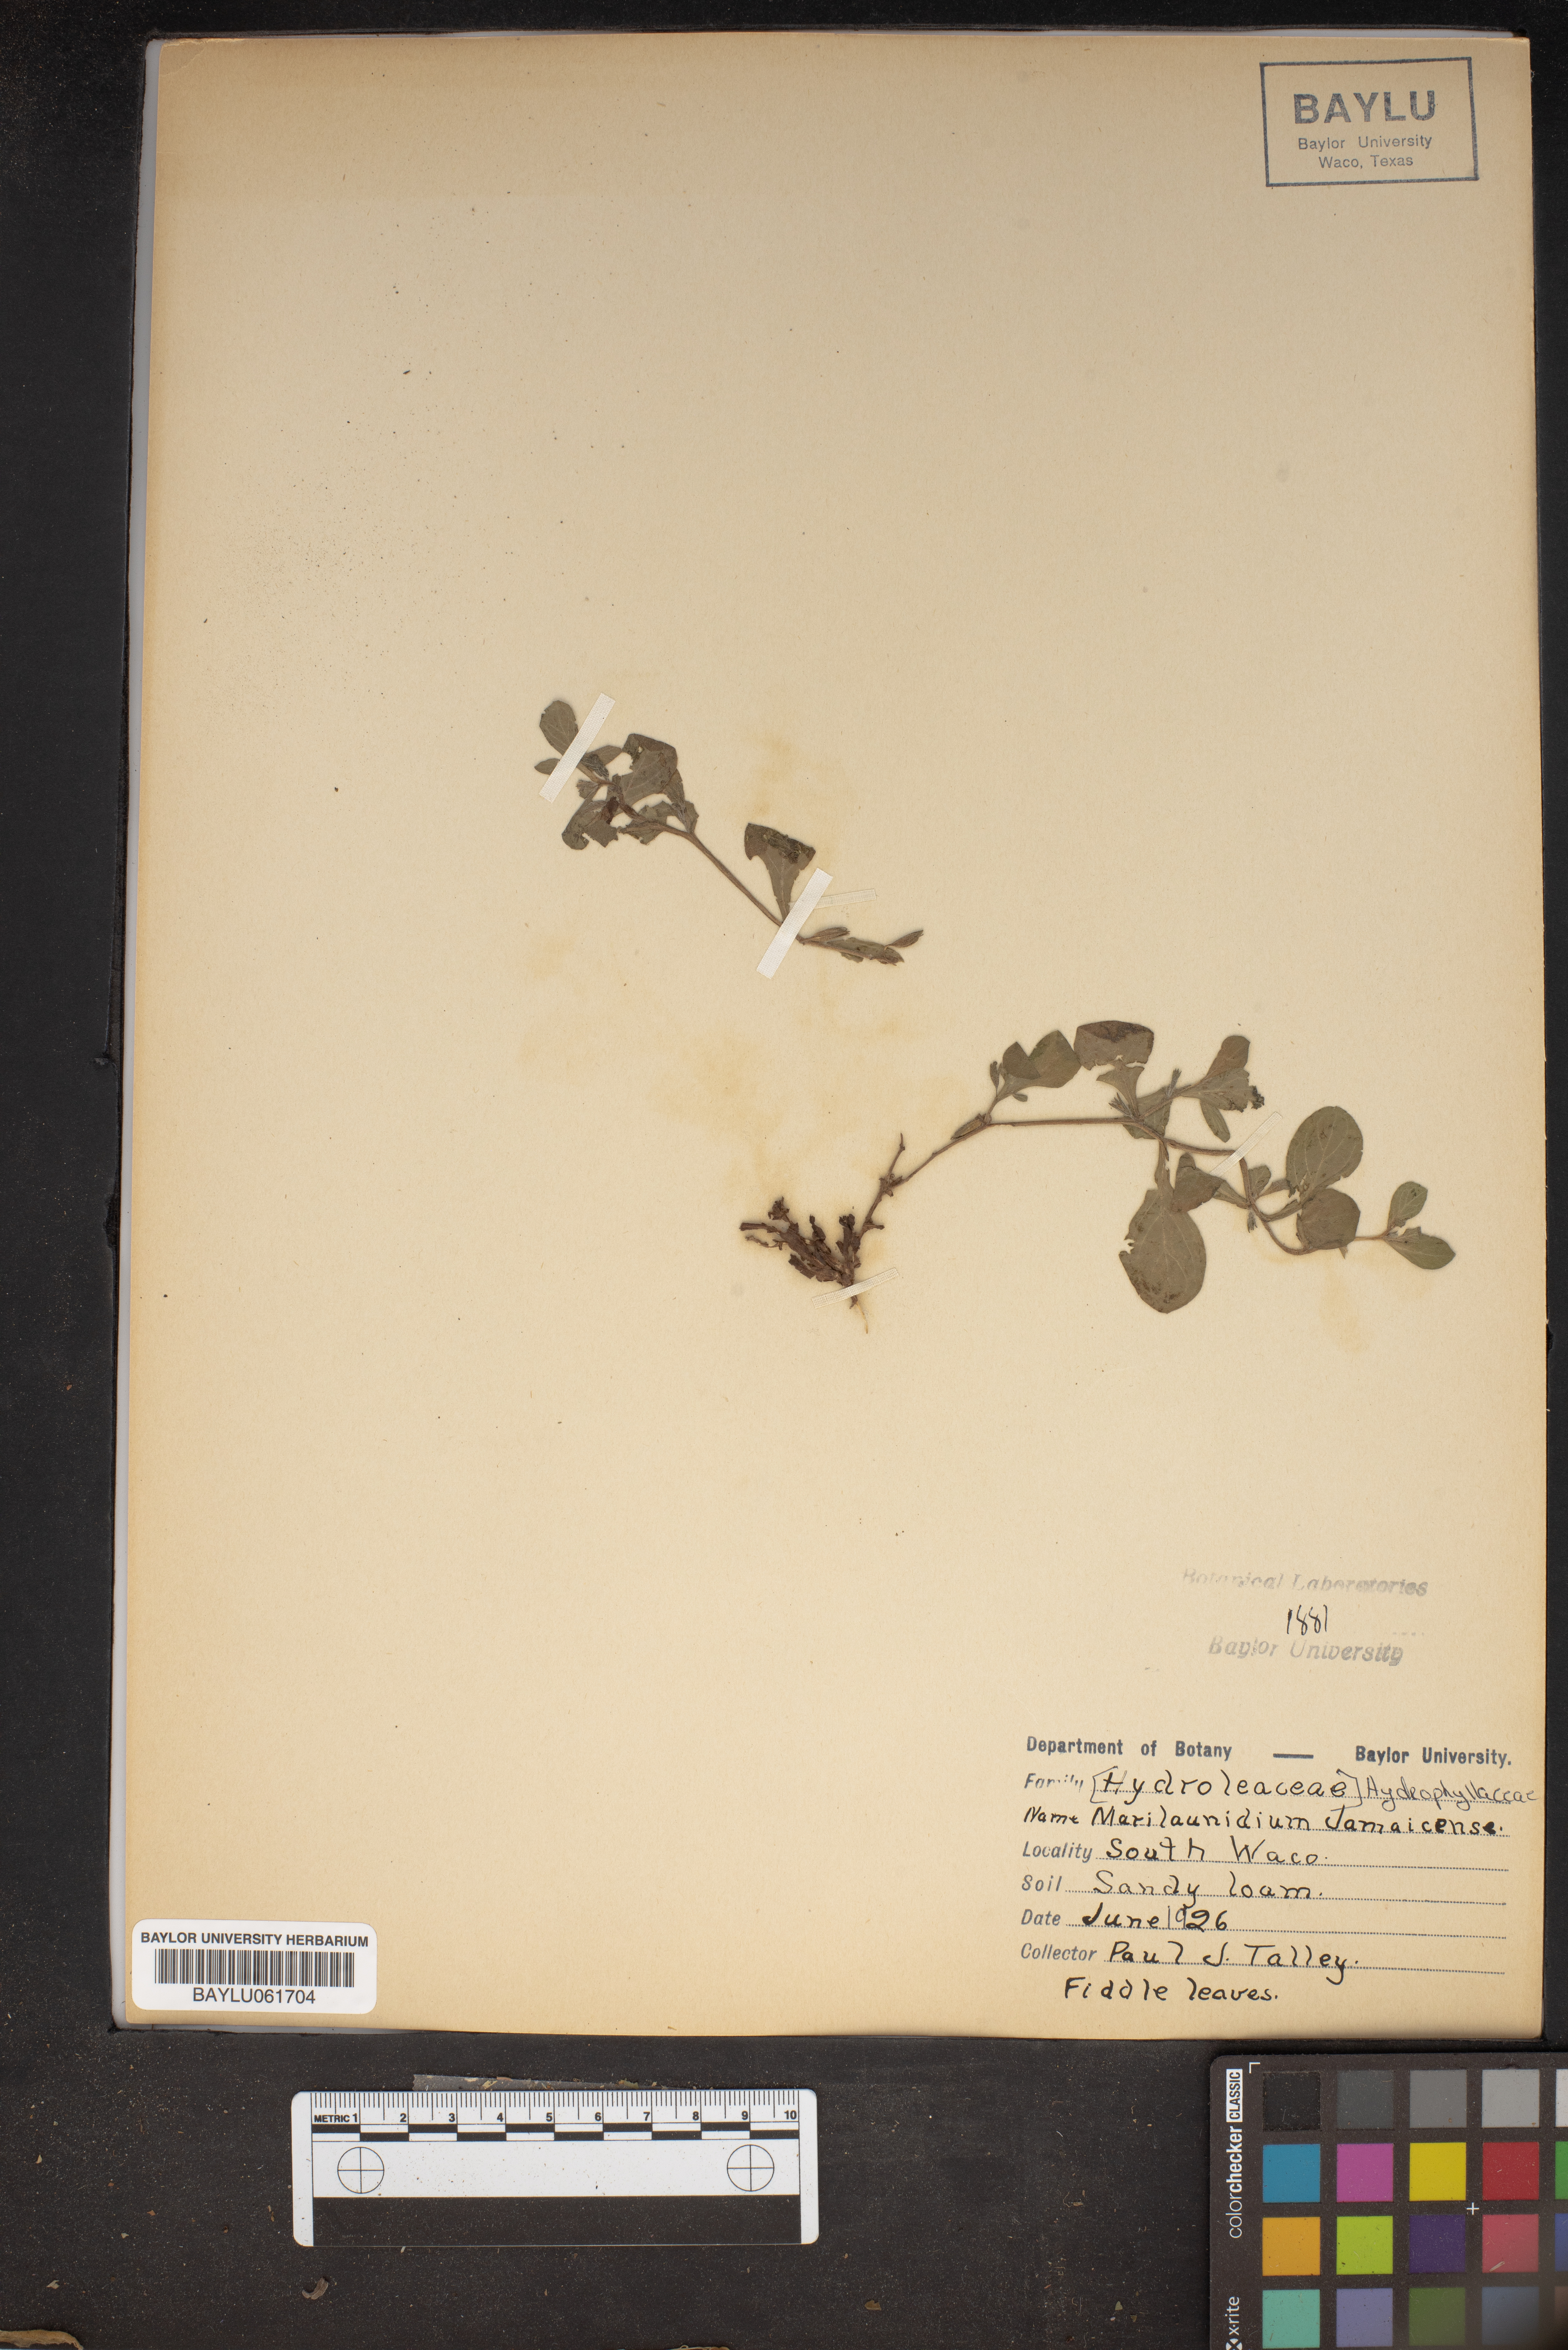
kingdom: Plantae
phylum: Tracheophyta
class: Magnoliopsida
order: Boraginales
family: Namaceae
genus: Nama
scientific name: Nama jamaicensis
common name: Jamaicanweed
